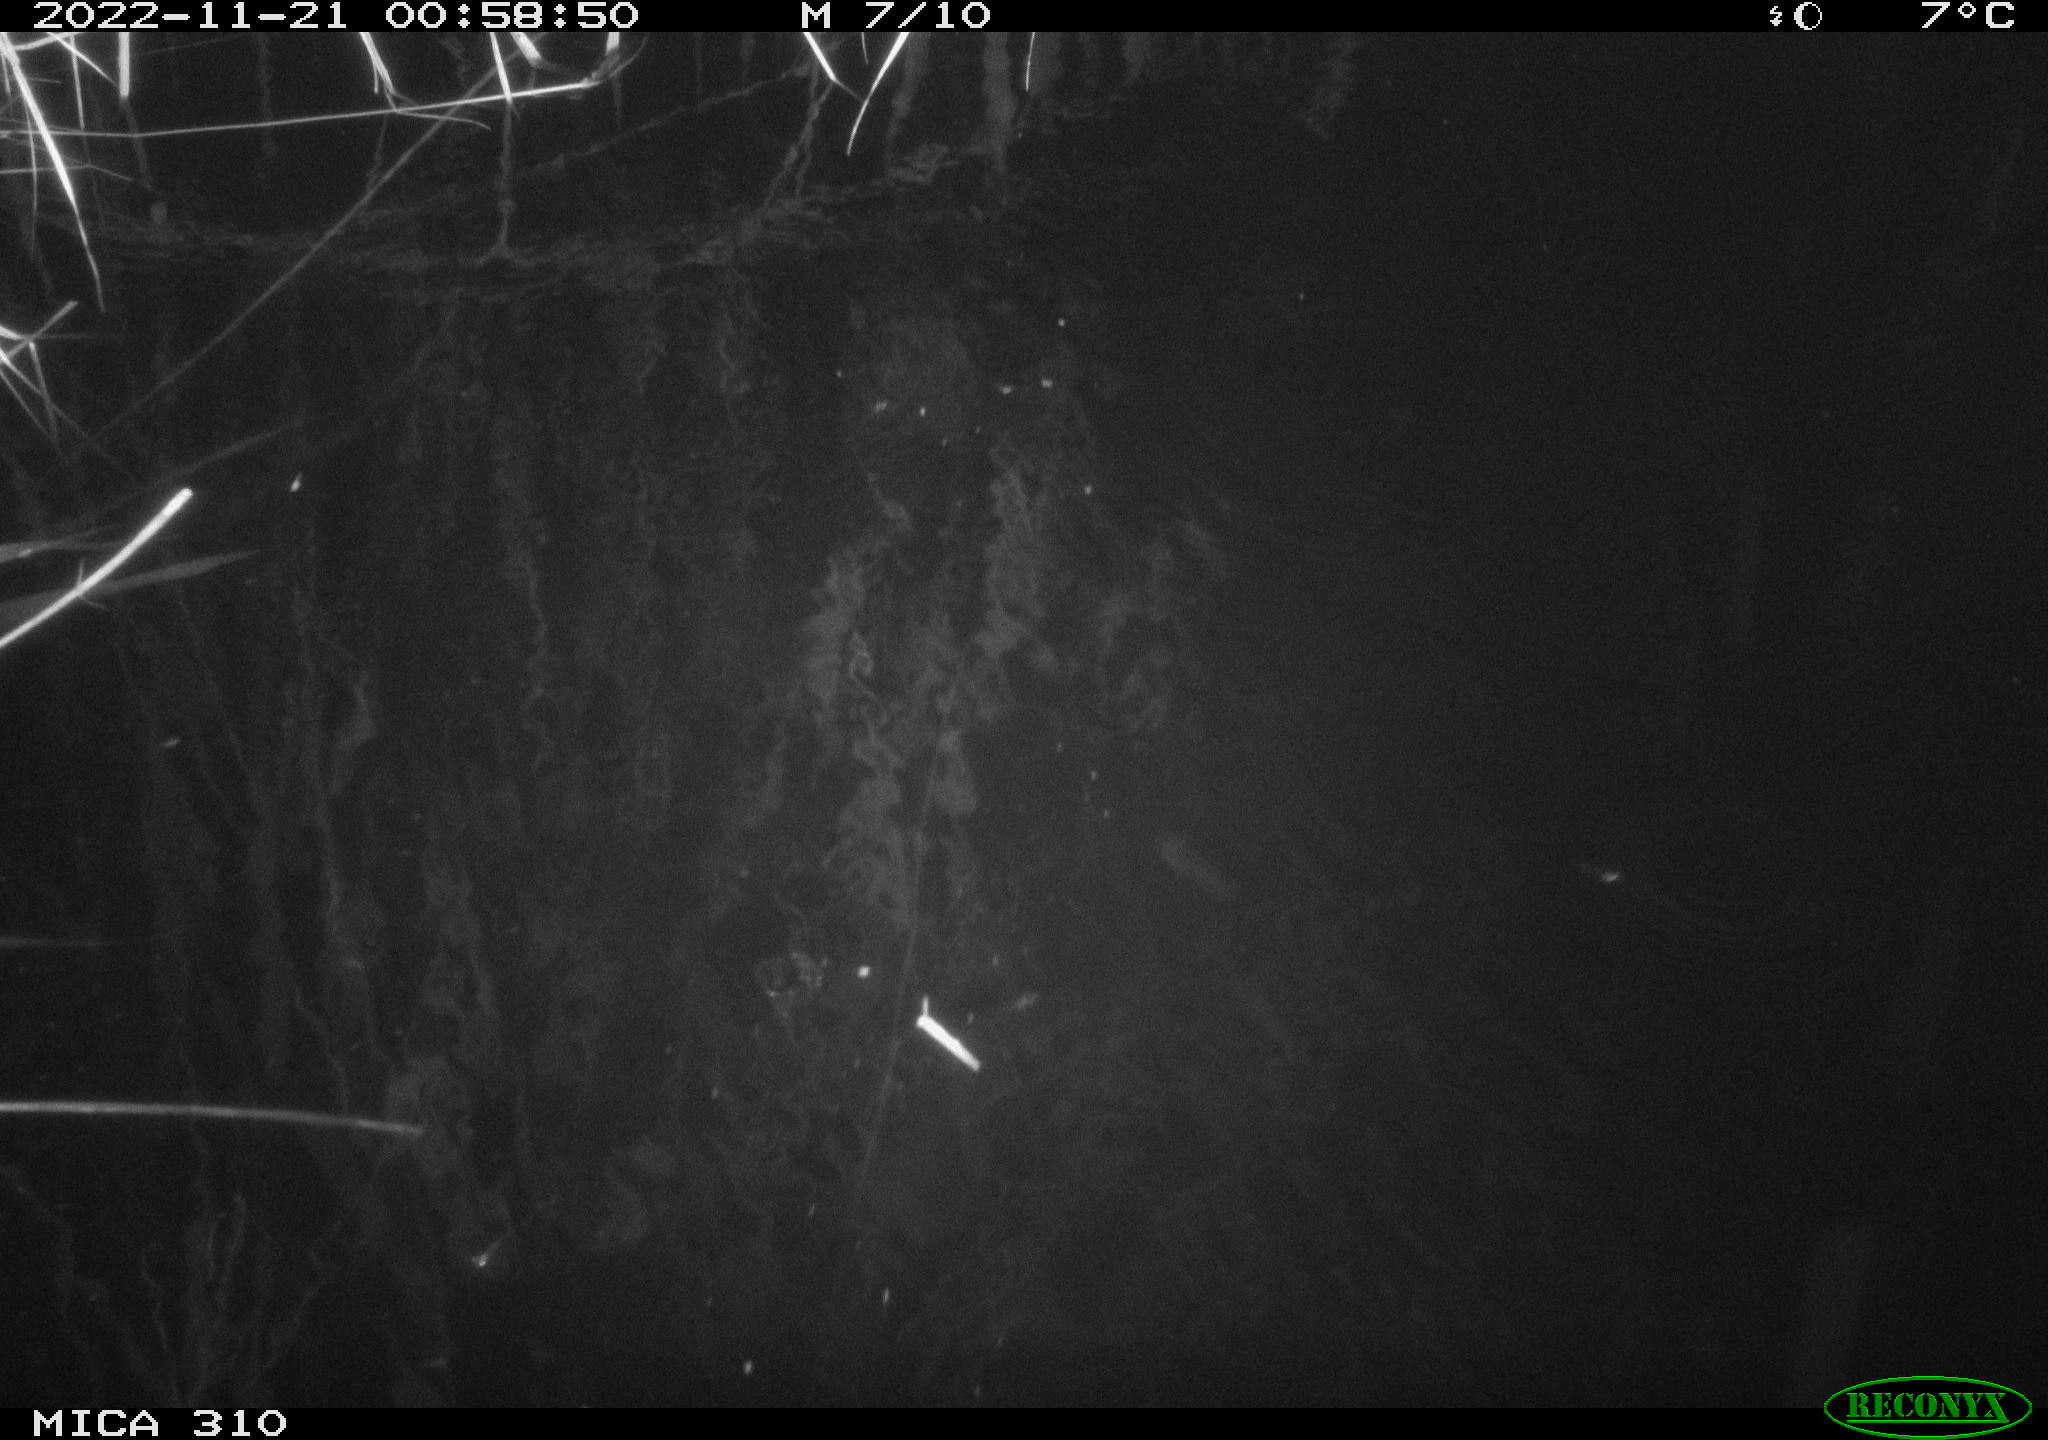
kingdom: Animalia
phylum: Chordata
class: Mammalia
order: Rodentia
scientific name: Rodentia
